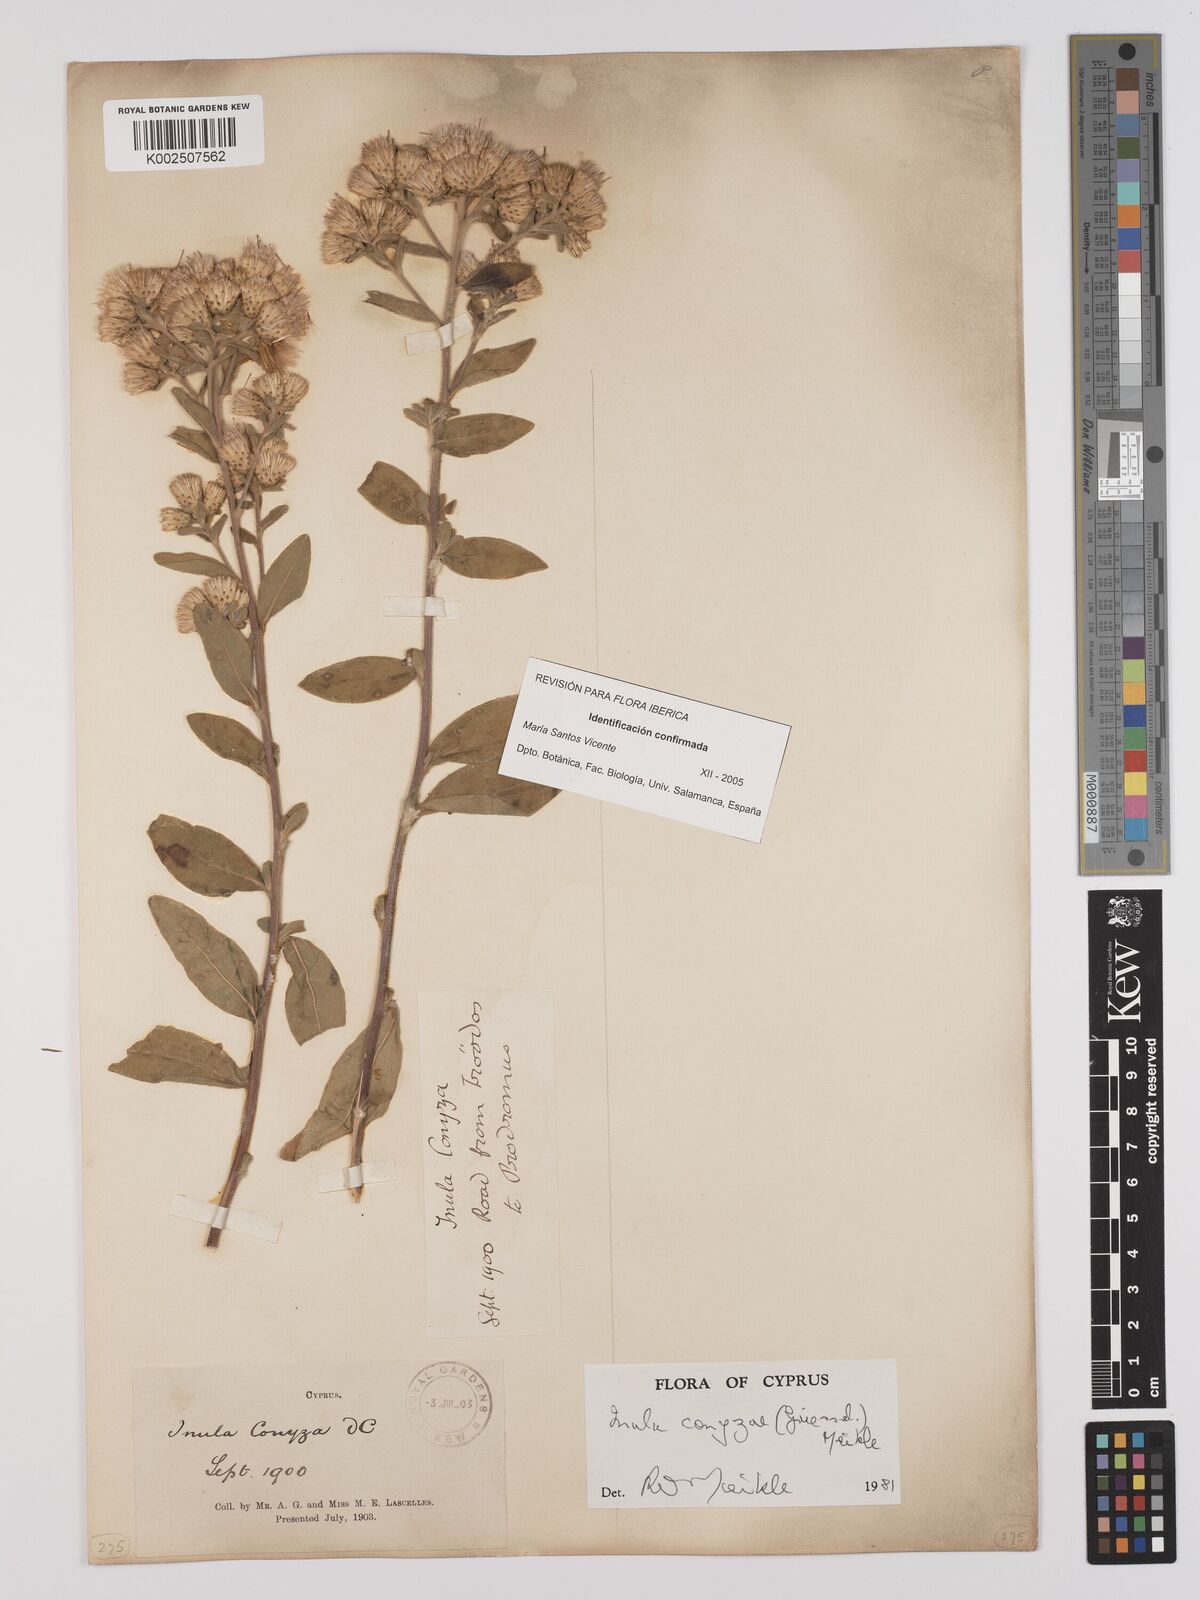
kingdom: Plantae
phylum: Tracheophyta
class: Magnoliopsida
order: Asterales
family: Asteraceae
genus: Pentanema
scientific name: Pentanema squarrosum
